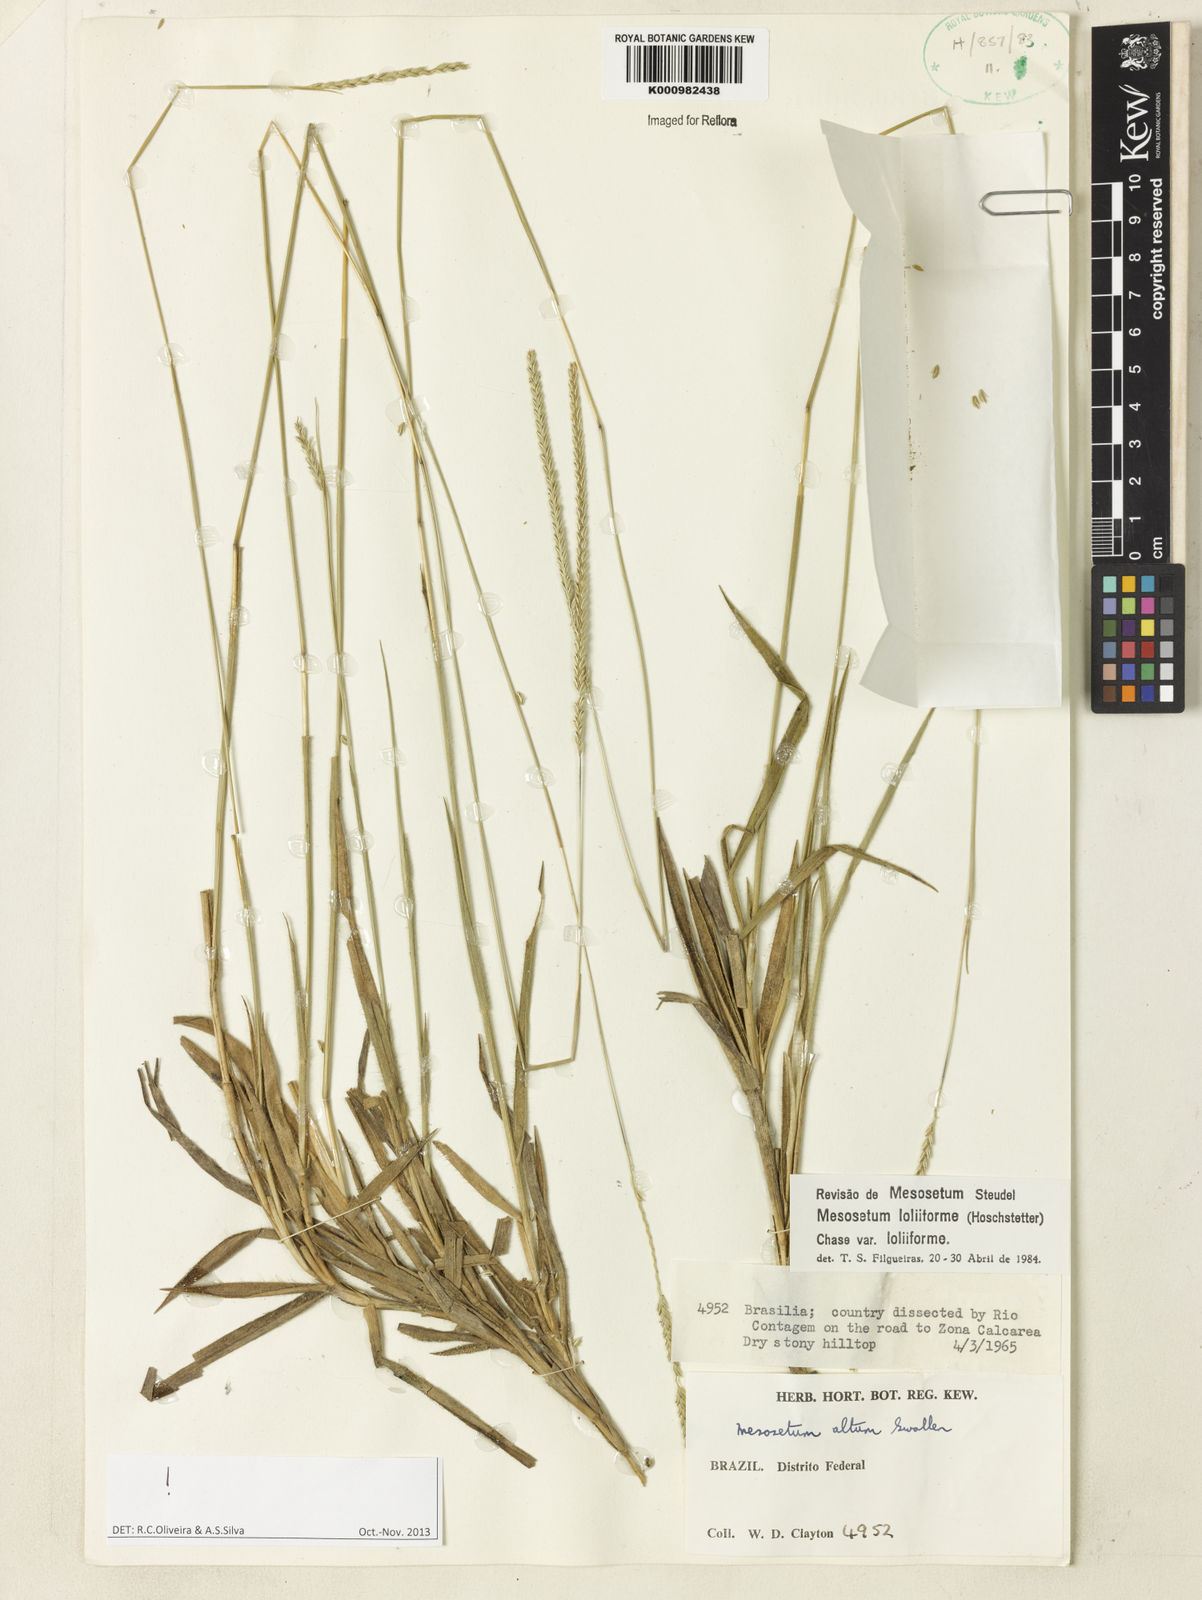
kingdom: Plantae
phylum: Tracheophyta
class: Liliopsida
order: Poales
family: Poaceae
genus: Mesosetum
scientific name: Mesosetum
